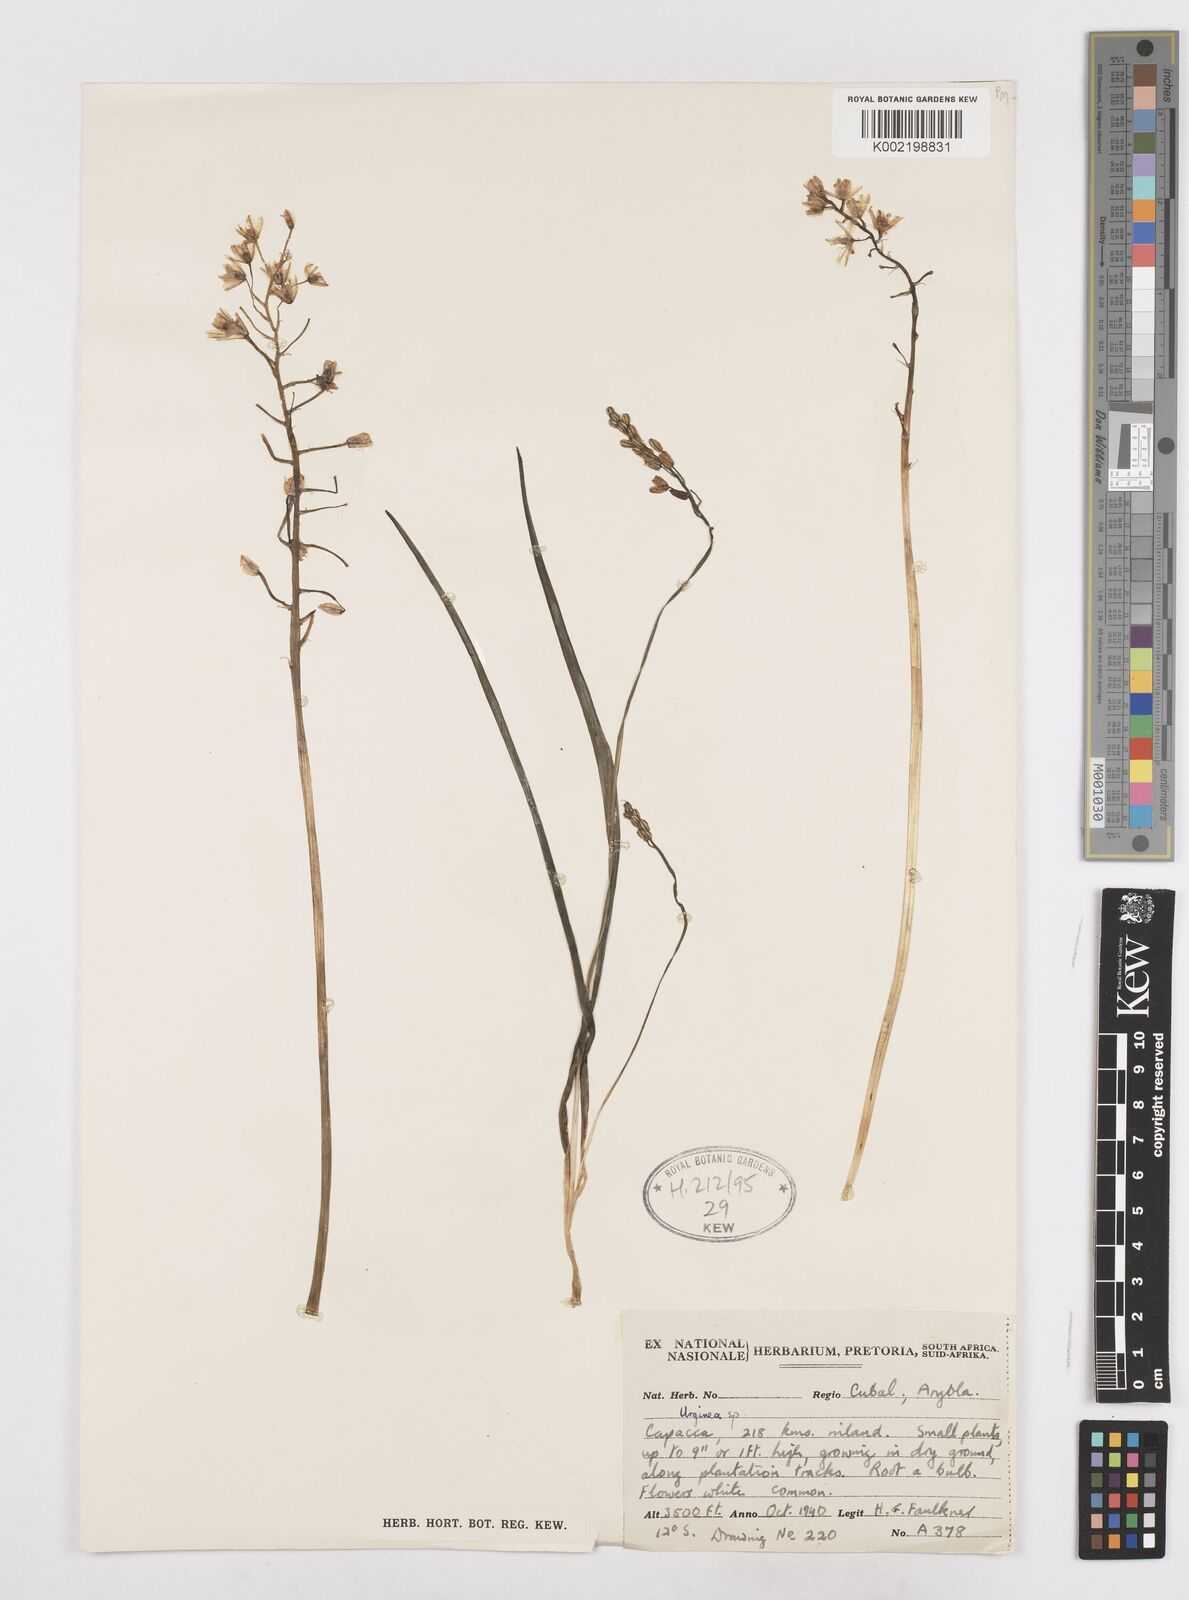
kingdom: Plantae
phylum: Tracheophyta
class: Liliopsida
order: Asparagales
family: Asparagaceae
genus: Drimia
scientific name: Drimia
